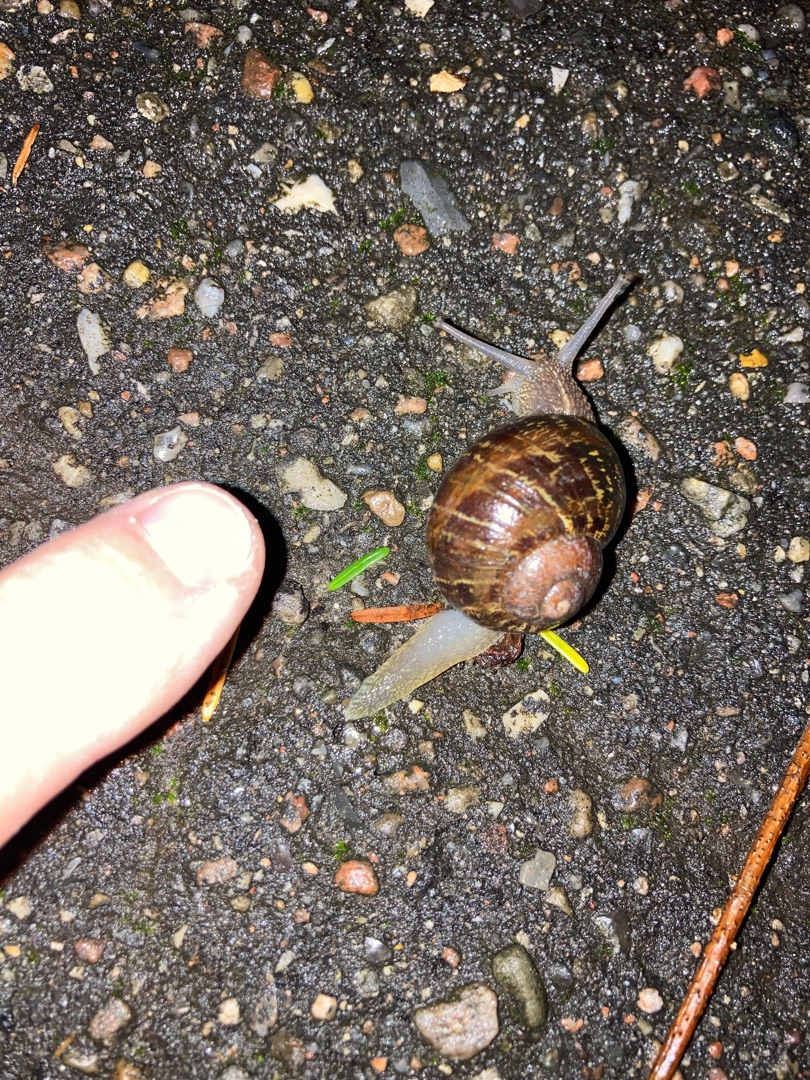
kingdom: Animalia
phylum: Mollusca
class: Gastropoda
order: Stylommatophora
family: Helicidae
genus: Cornu
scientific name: Cornu aspersum
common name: Plettet voldsnegl
